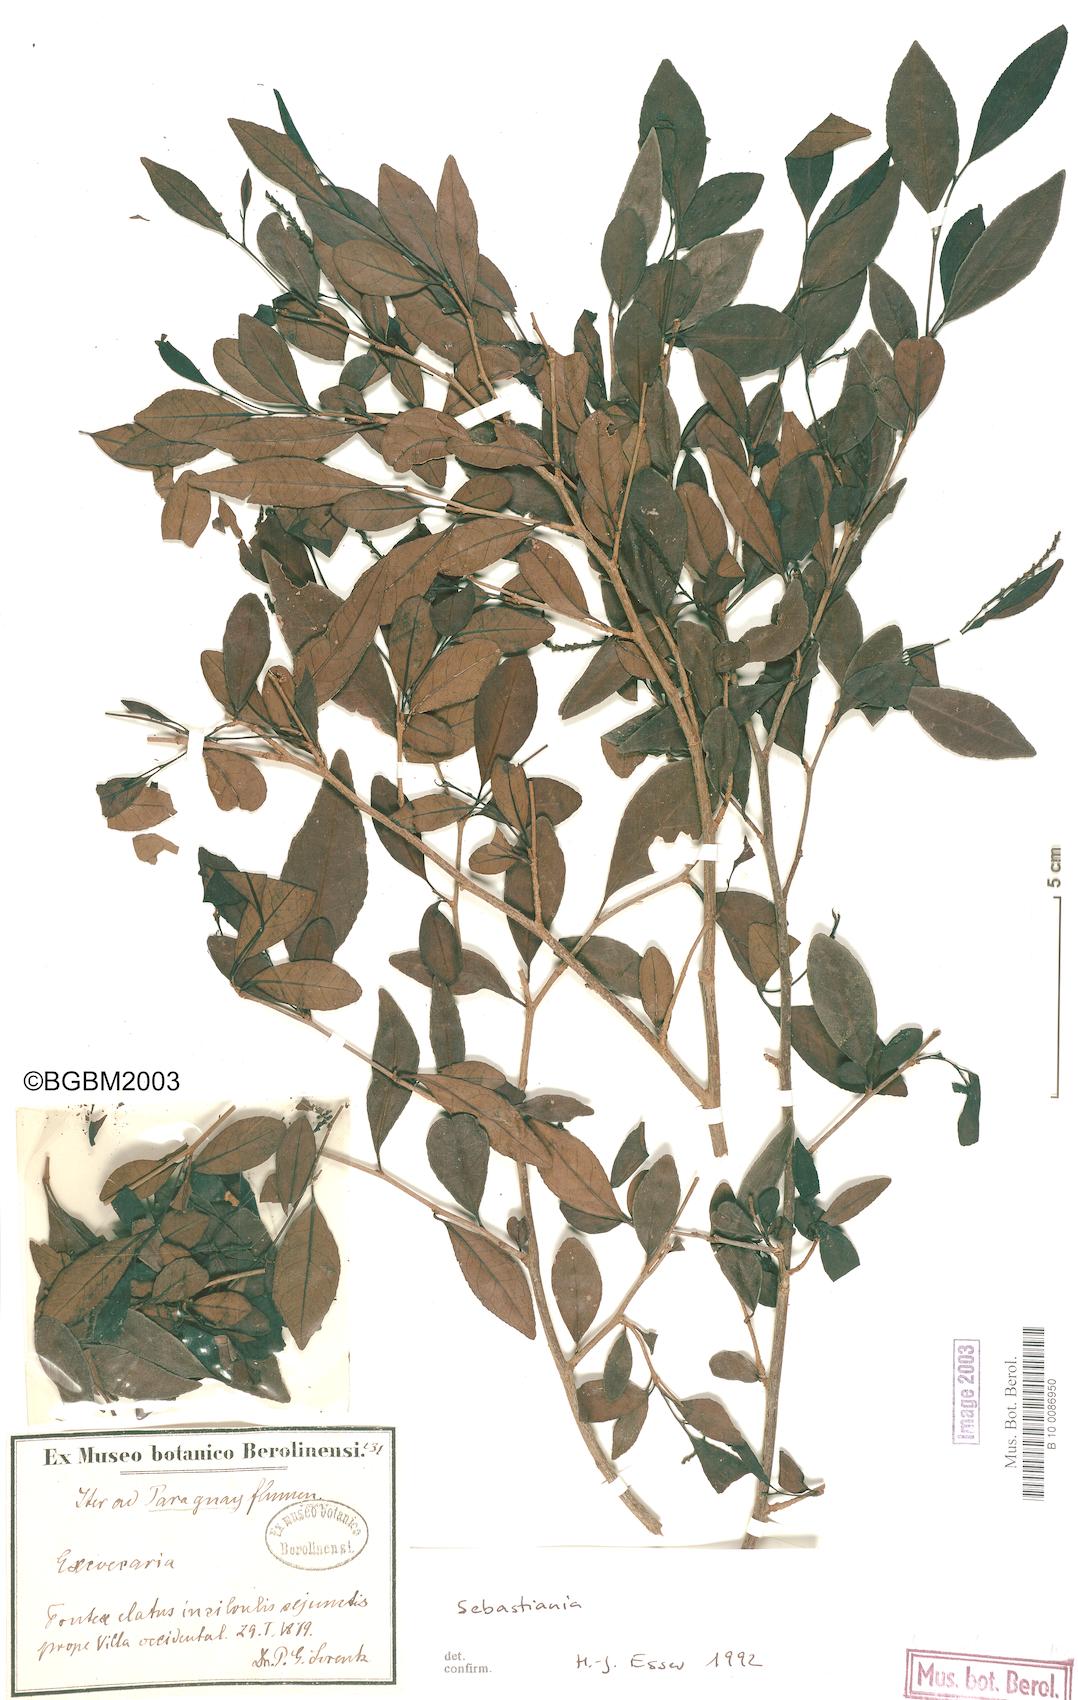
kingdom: Plantae
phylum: Tracheophyta
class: Magnoliopsida
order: Malpighiales
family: Euphorbiaceae
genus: Sebastiania
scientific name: Sebastiania brasiliensis
